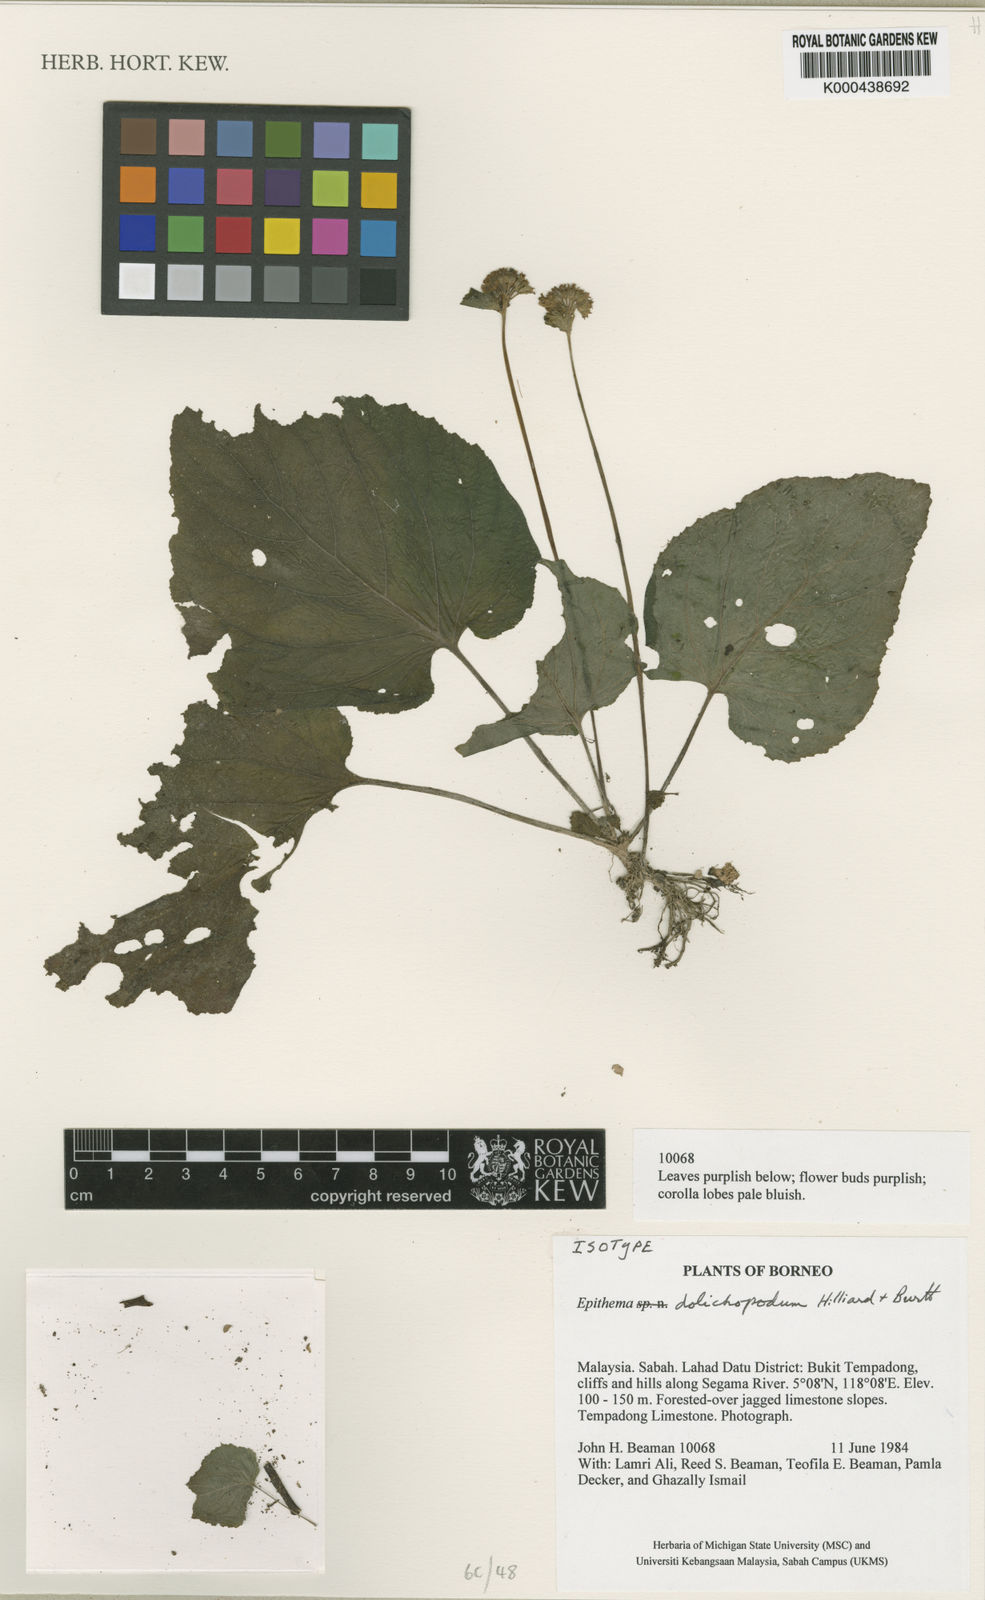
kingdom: Plantae
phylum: Tracheophyta
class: Magnoliopsida
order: Lamiales
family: Gesneriaceae
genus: Epithema
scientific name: Epithema dolichopodum
